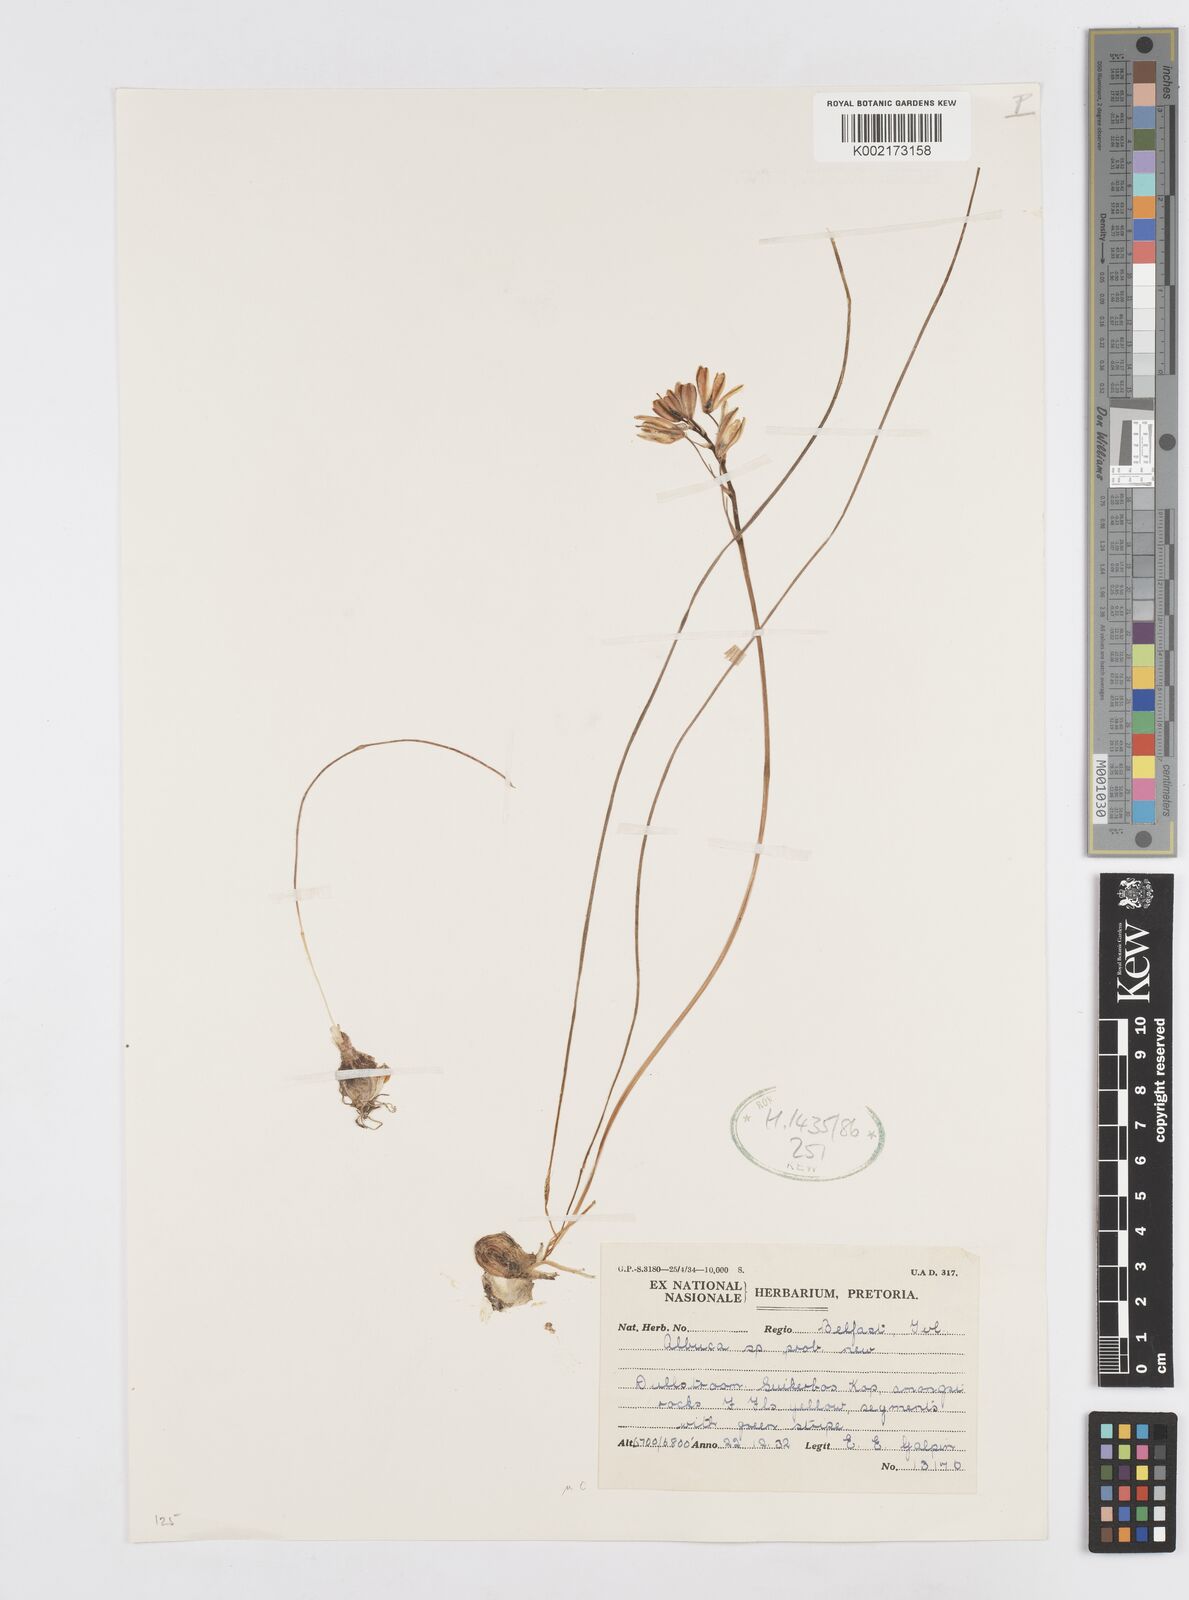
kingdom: Plantae
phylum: Tracheophyta
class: Liliopsida
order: Asparagales
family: Asparagaceae
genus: Albuca
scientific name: Albuca
